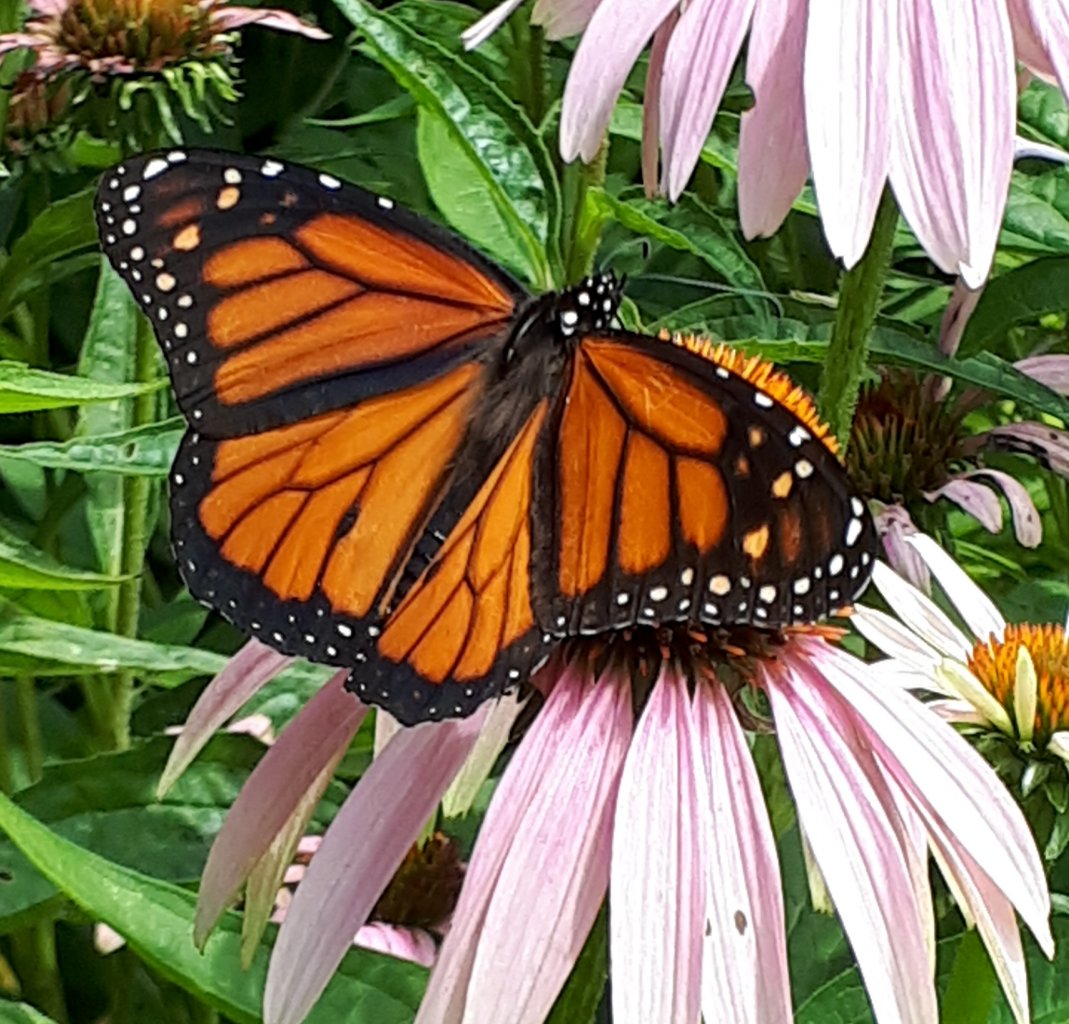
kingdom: Animalia
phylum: Arthropoda
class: Insecta
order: Lepidoptera
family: Nymphalidae
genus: Danaus
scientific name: Danaus plexippus
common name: Monarch
